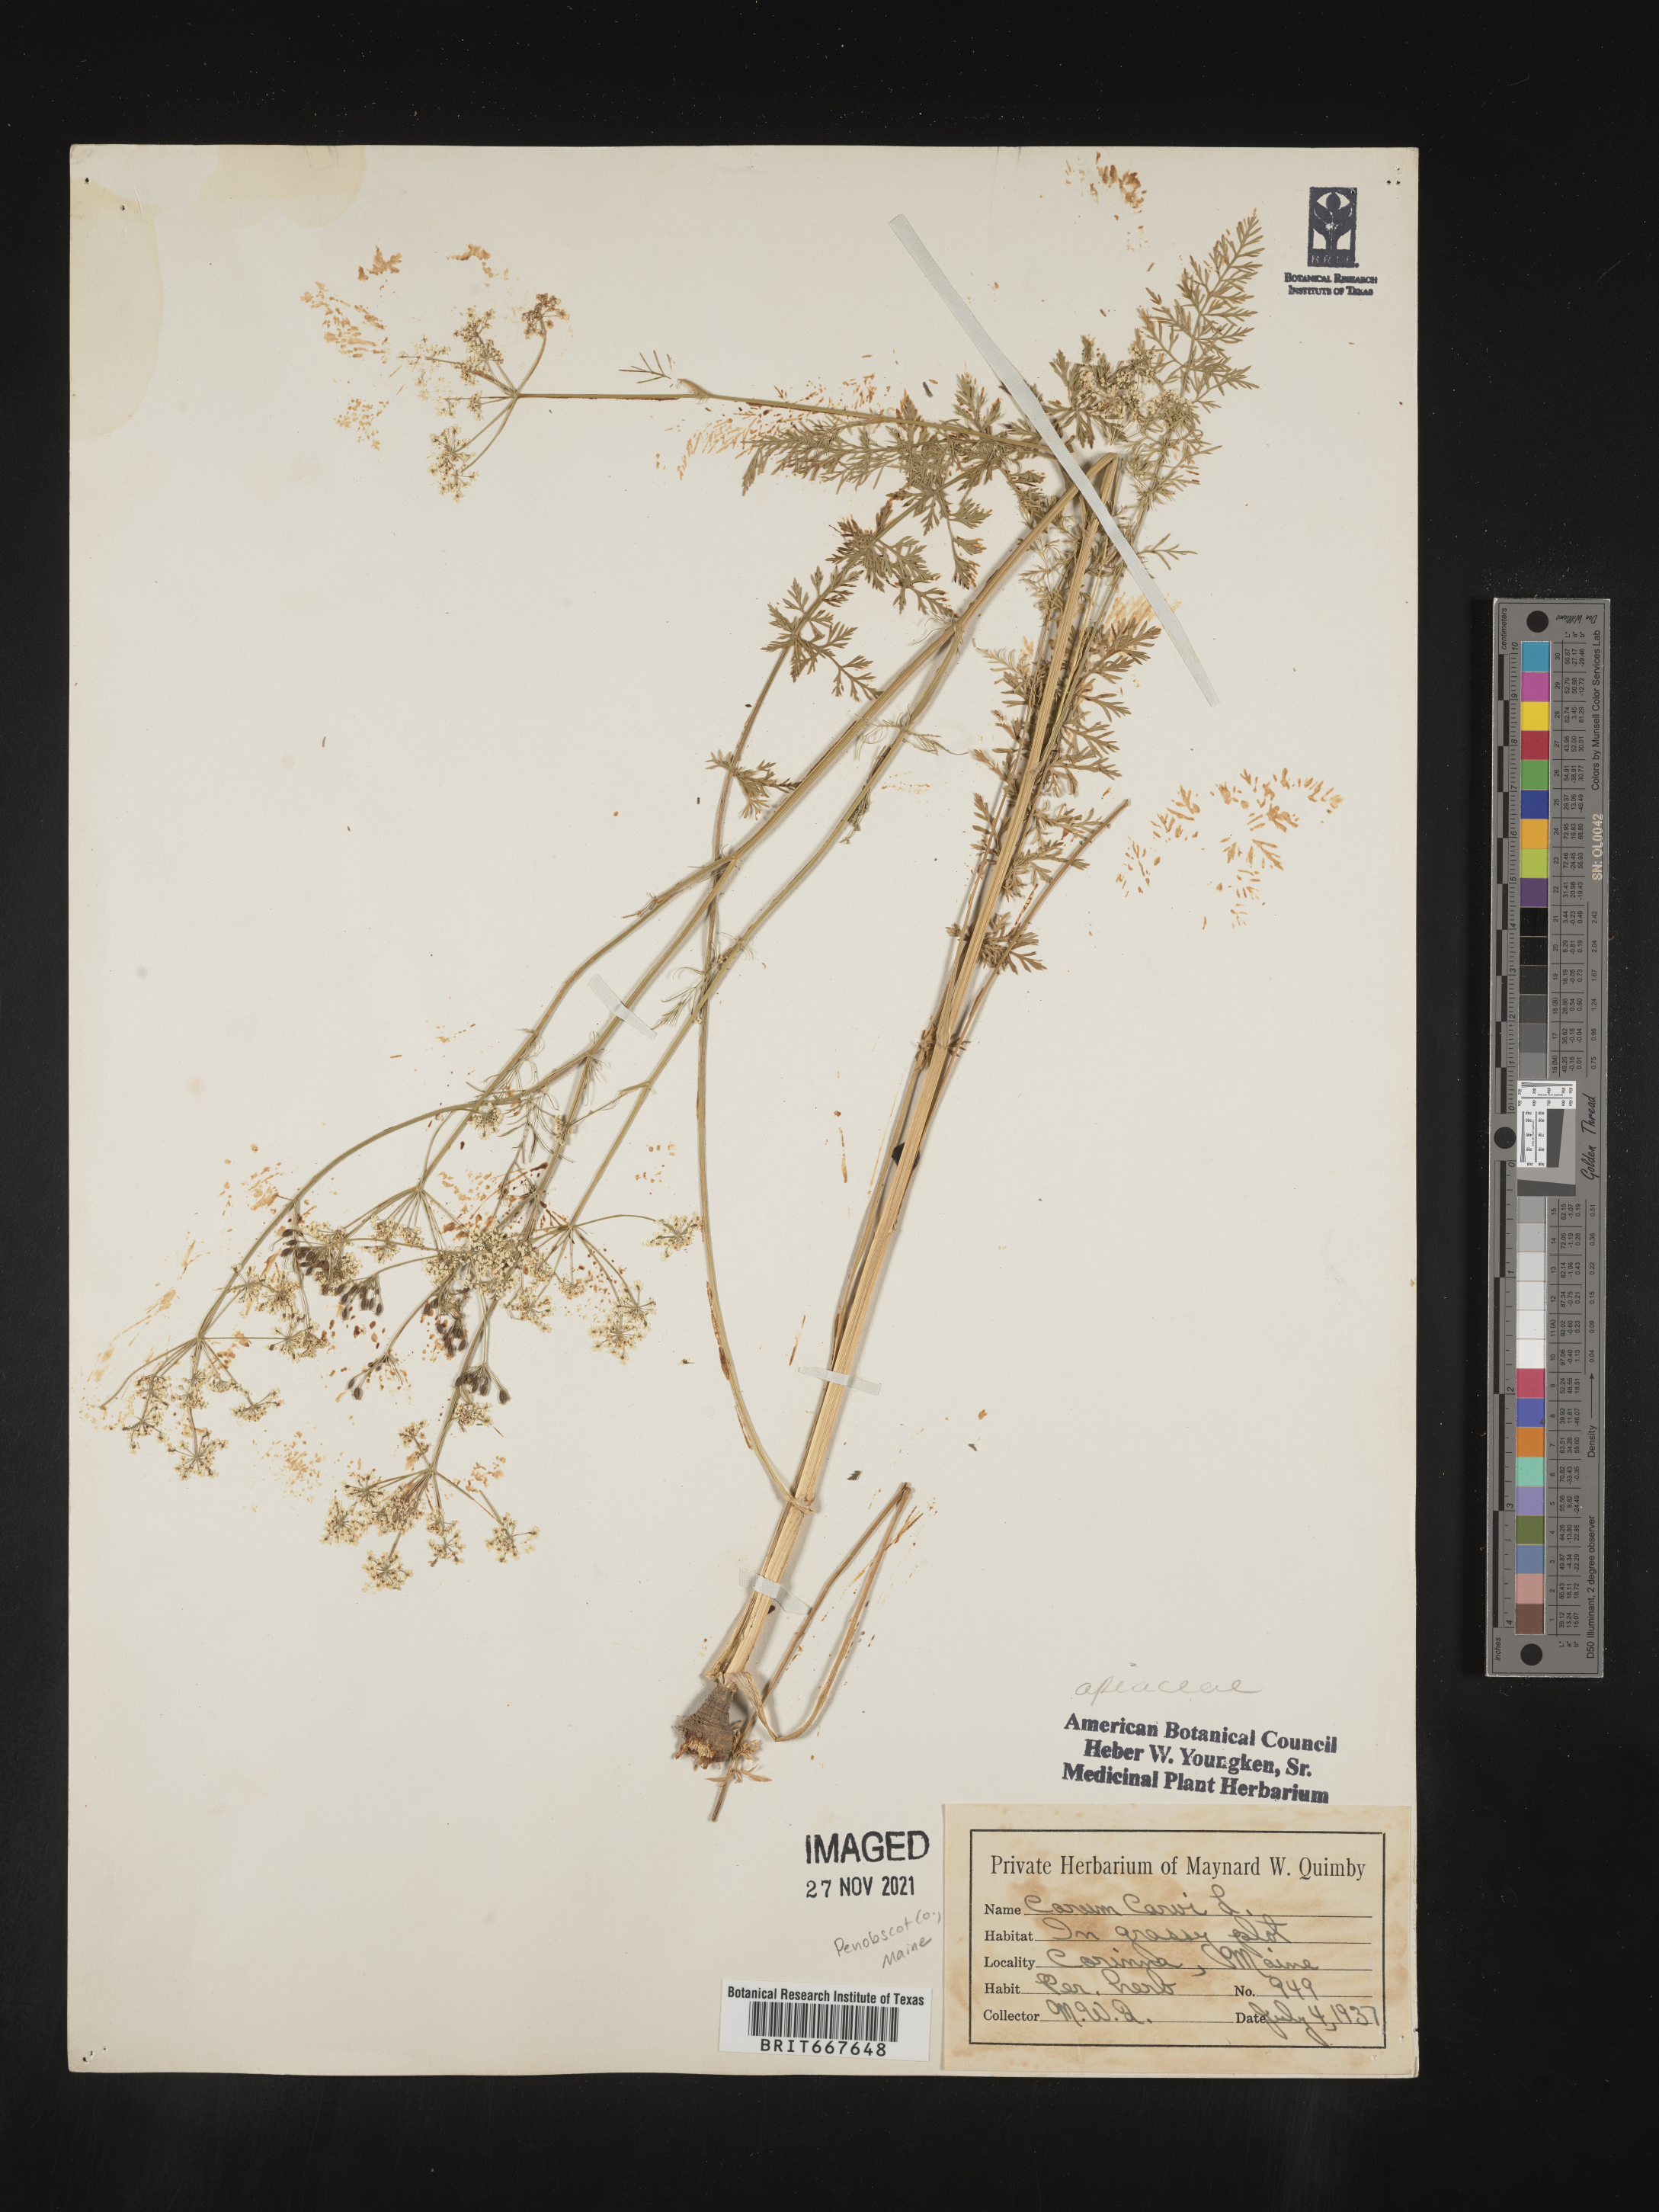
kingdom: Plantae
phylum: Tracheophyta
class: Magnoliopsida
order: Apiales
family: Apiaceae
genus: Carum
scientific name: Carum
